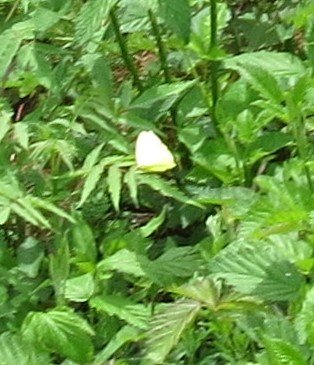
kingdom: Animalia
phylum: Arthropoda
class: Insecta
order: Lepidoptera
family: Pieridae
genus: Phoebis
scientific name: Phoebis sennae
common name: Cloudless Sulphur
